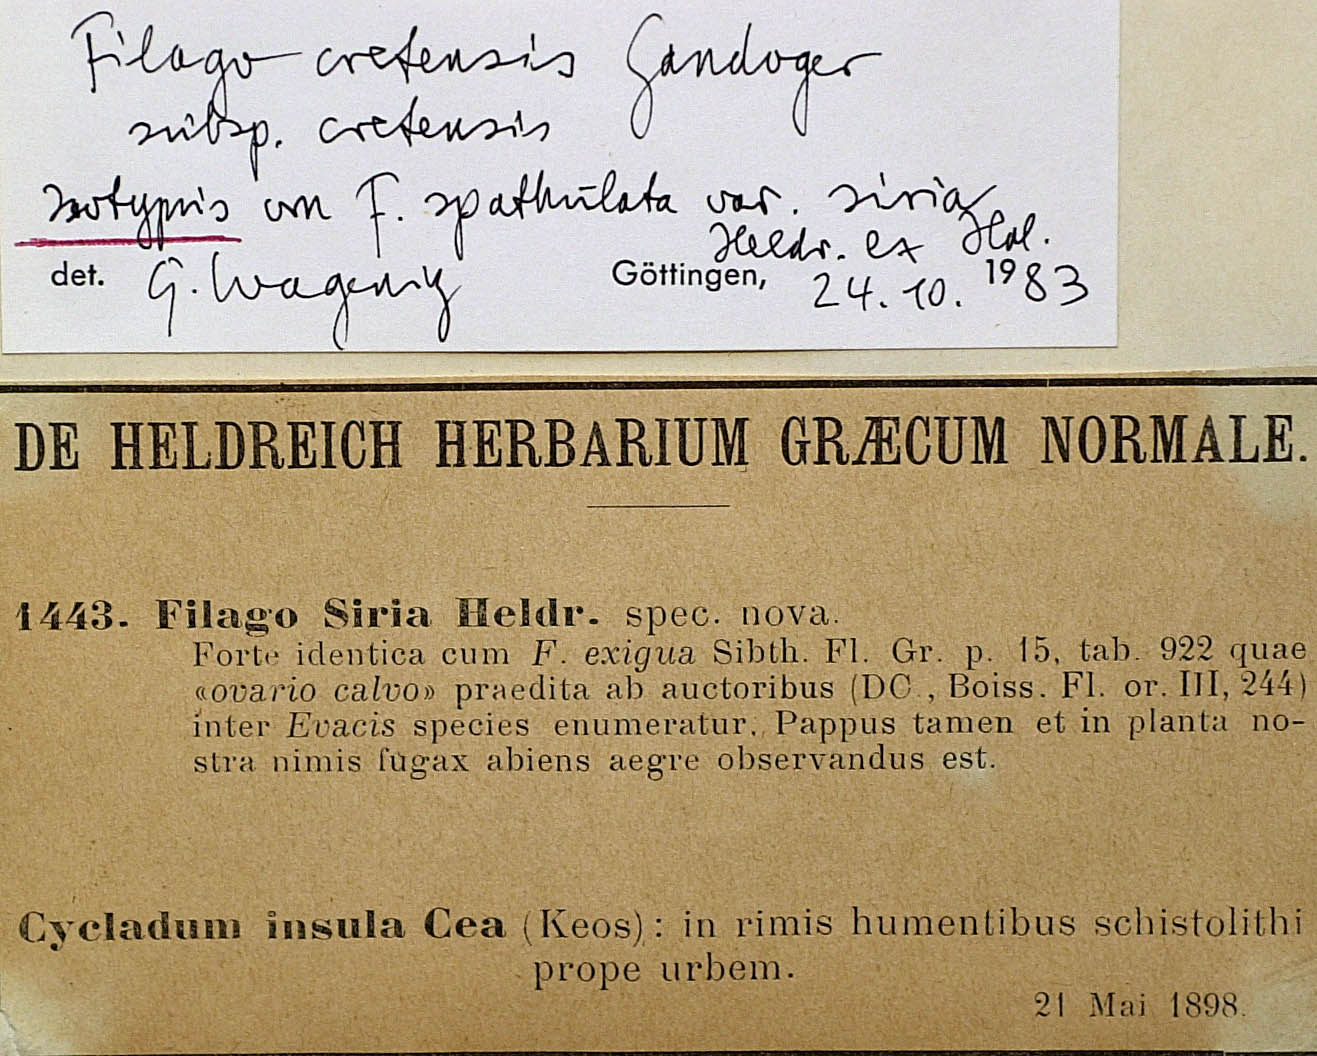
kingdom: Plantae
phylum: Tracheophyta
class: Magnoliopsida
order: Asterales
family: Asteraceae
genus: Filago
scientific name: Filago cretensis
